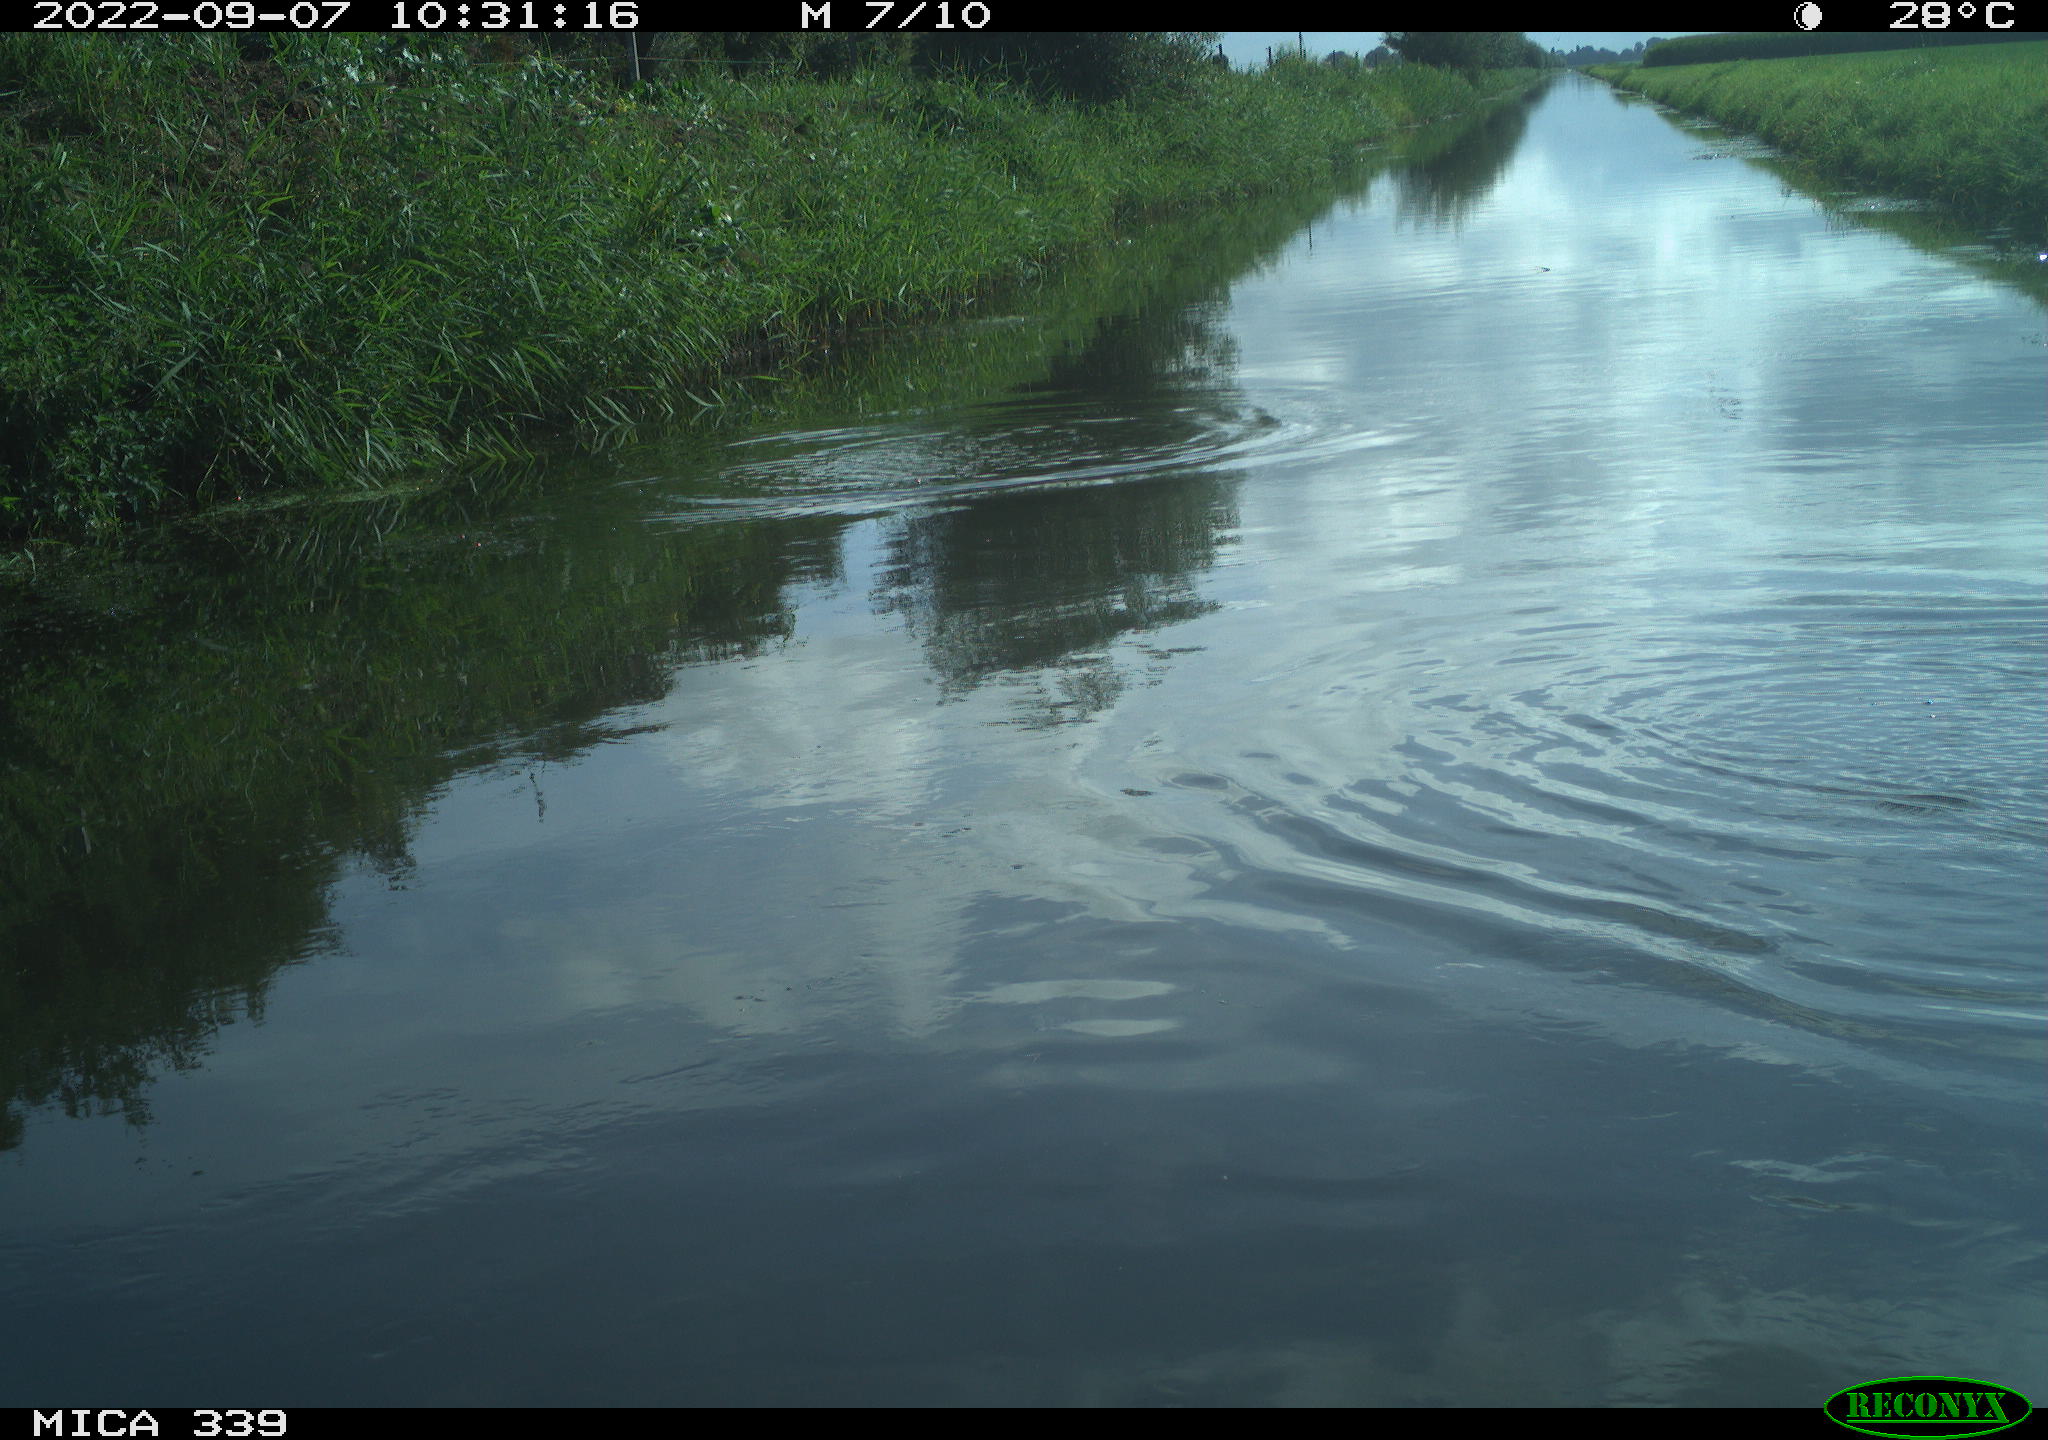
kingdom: Animalia
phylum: Chordata
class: Aves
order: Charadriiformes
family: Laridae
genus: Chroicocephalus
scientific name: Chroicocephalus ridibundus
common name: Black-headed gull
